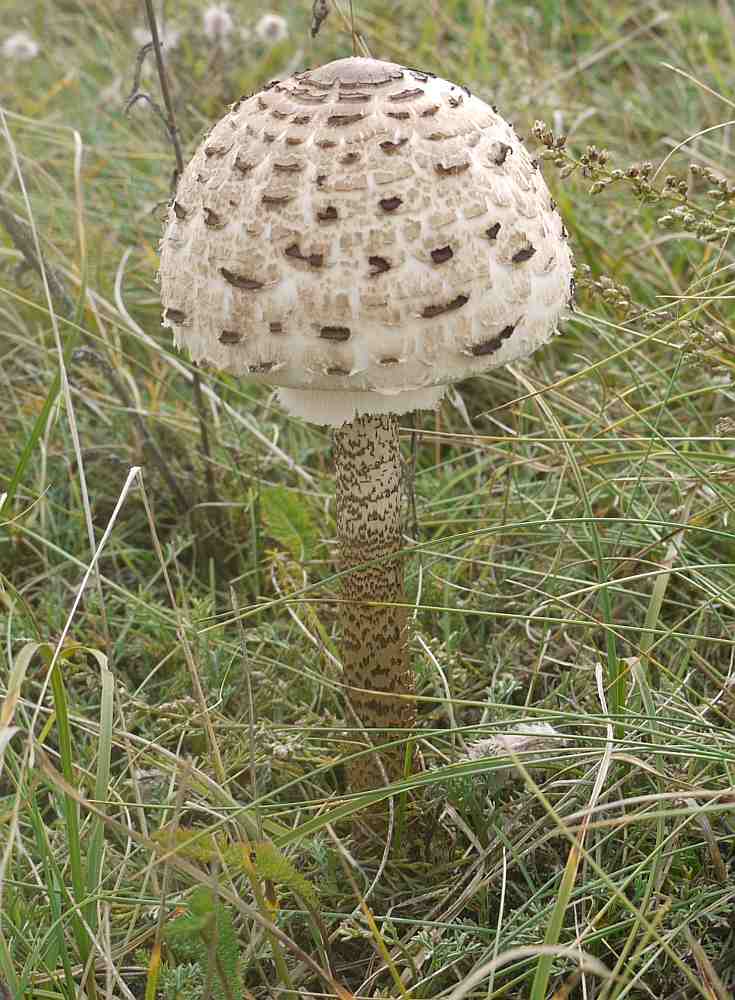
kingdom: Fungi
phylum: Basidiomycota
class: Agaricomycetes
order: Agaricales
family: Agaricaceae
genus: Macrolepiota
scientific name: Macrolepiota procera
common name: stor kæmpeparasolhat
